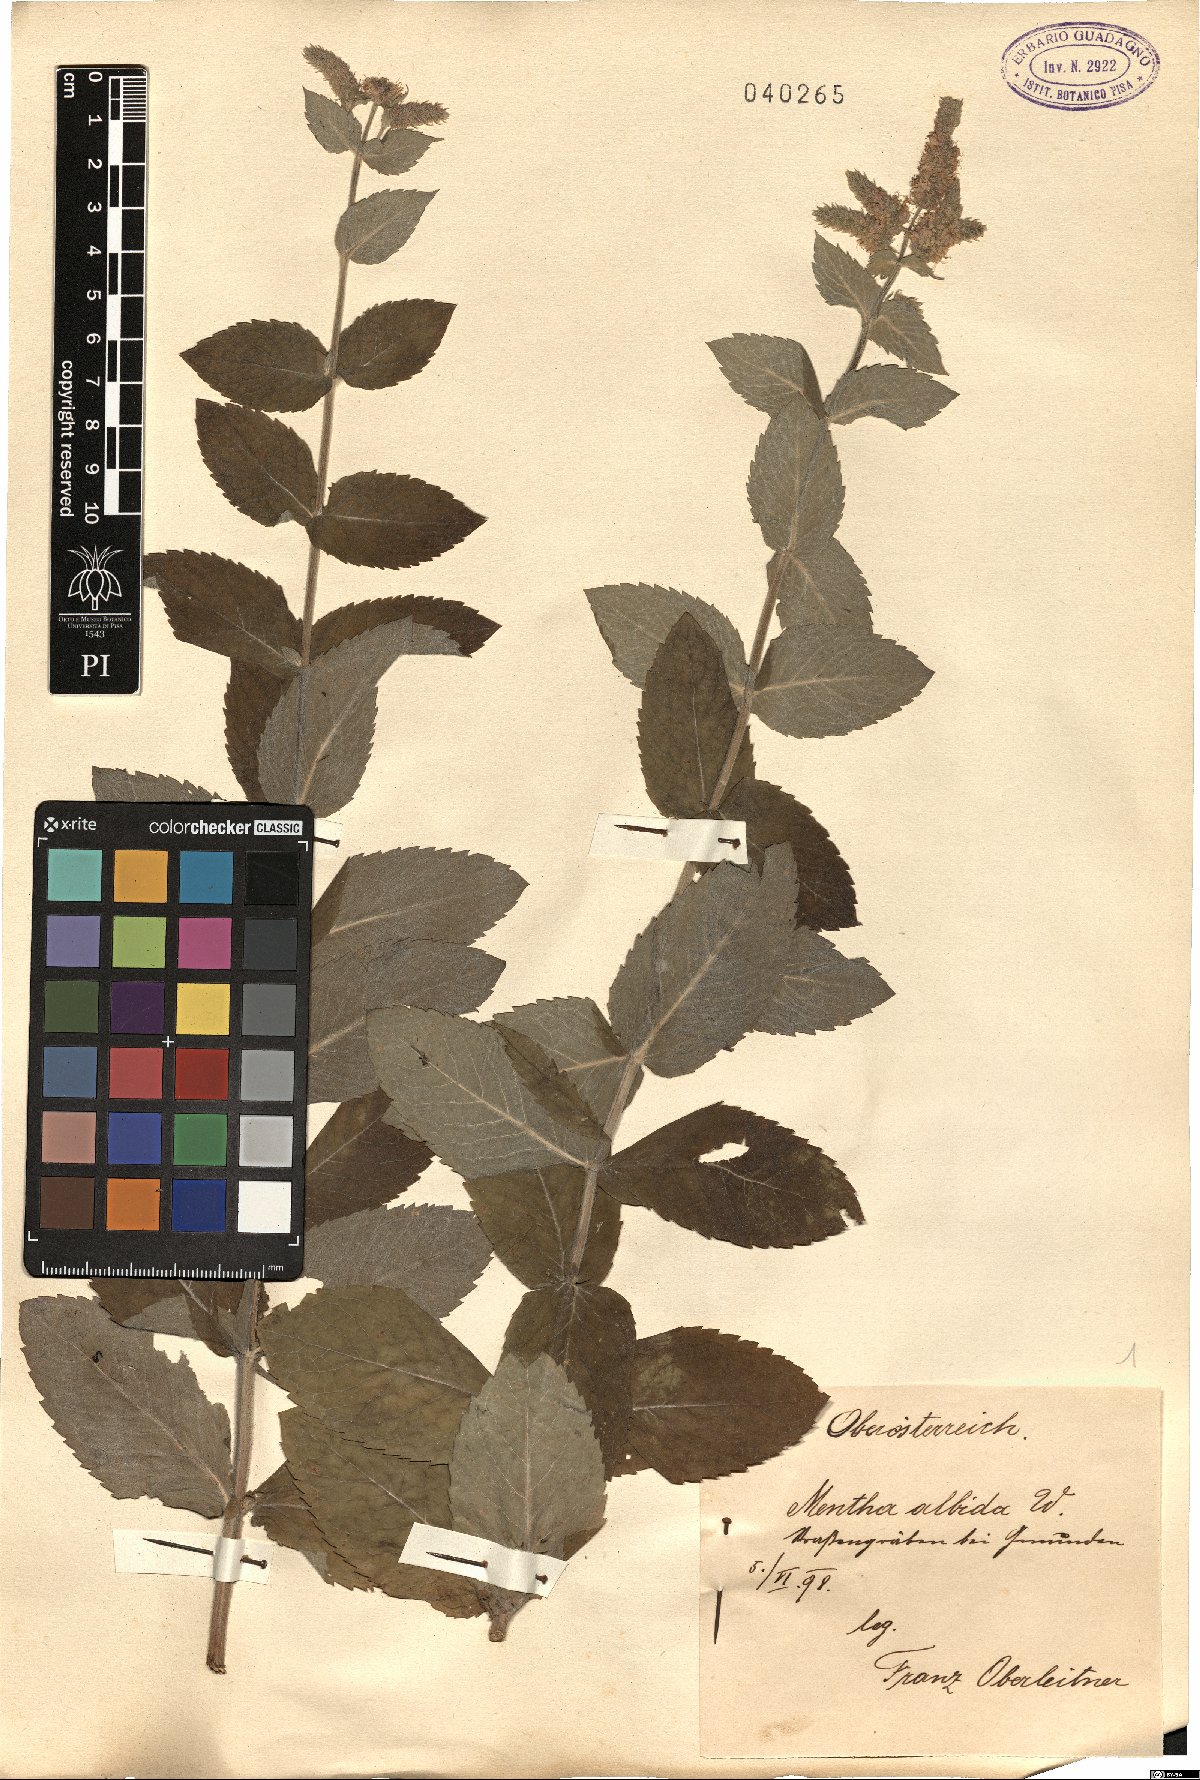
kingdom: Plantae
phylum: Tracheophyta
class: Magnoliopsida
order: Lamiales
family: Lamiaceae
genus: Mentha
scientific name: Mentha longifolia
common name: Horse mint
